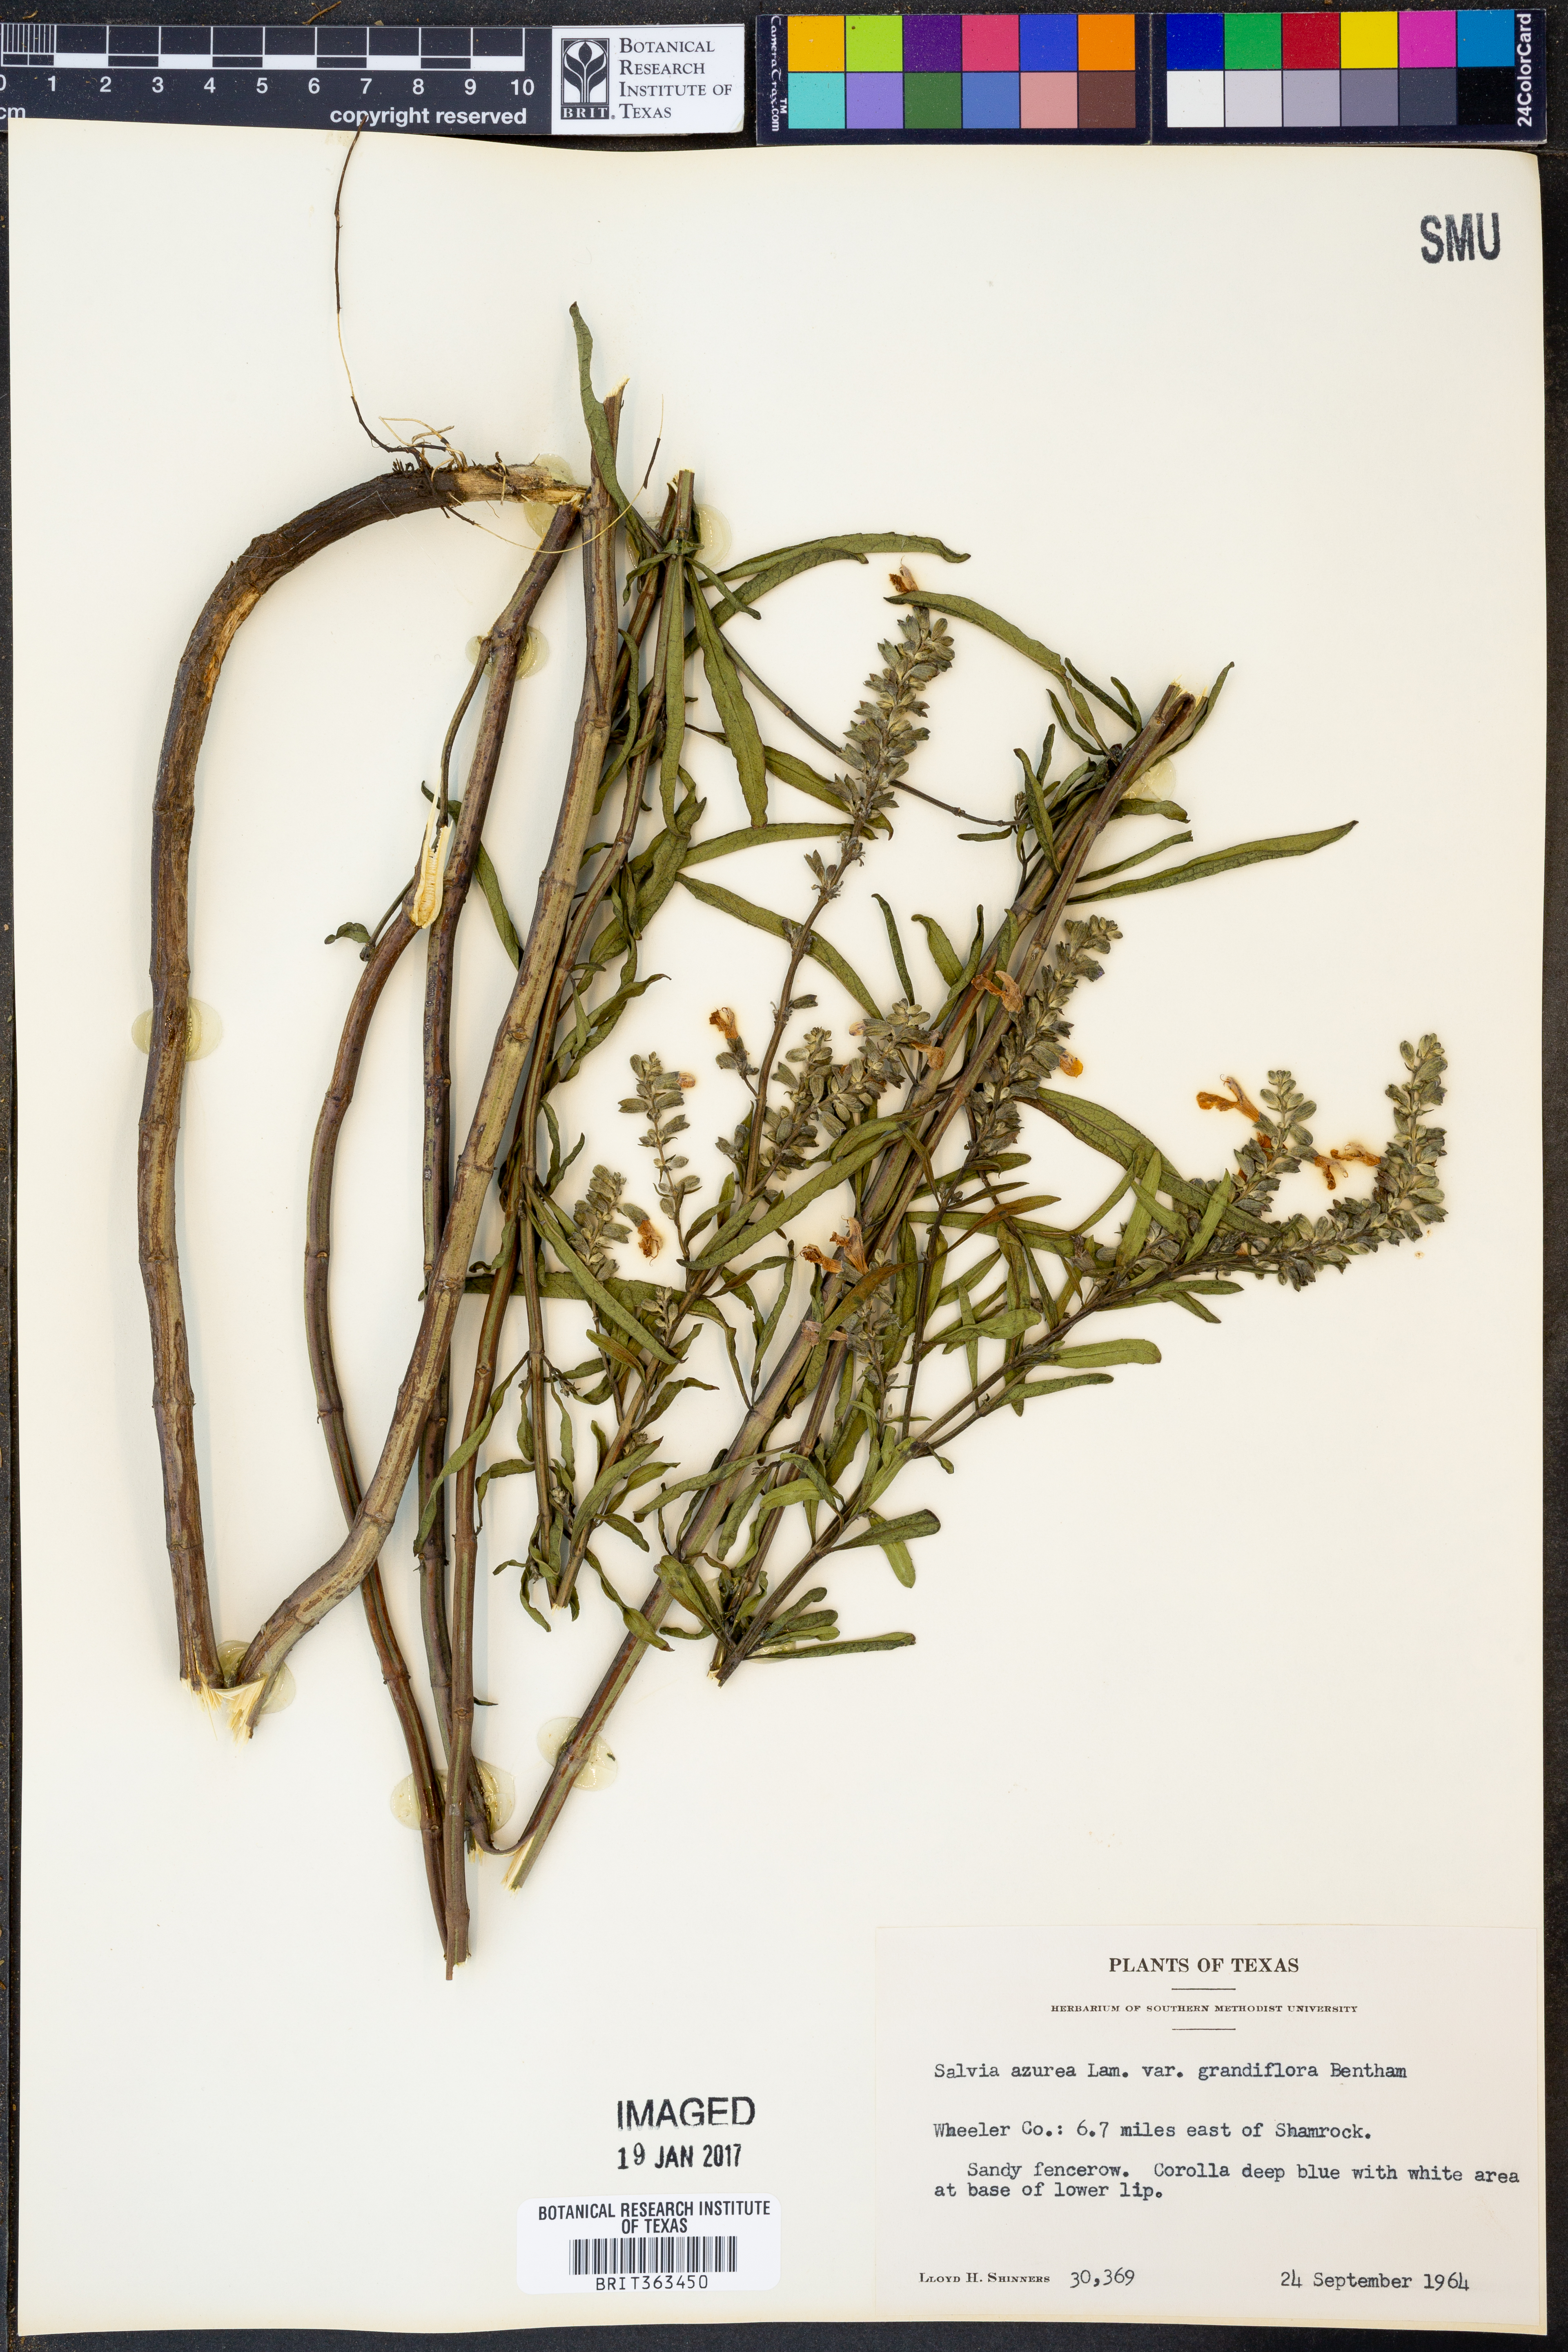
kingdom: Plantae
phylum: Tracheophyta
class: Magnoliopsida
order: Lamiales
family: Lamiaceae
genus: Salvia
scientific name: Salvia azurea
